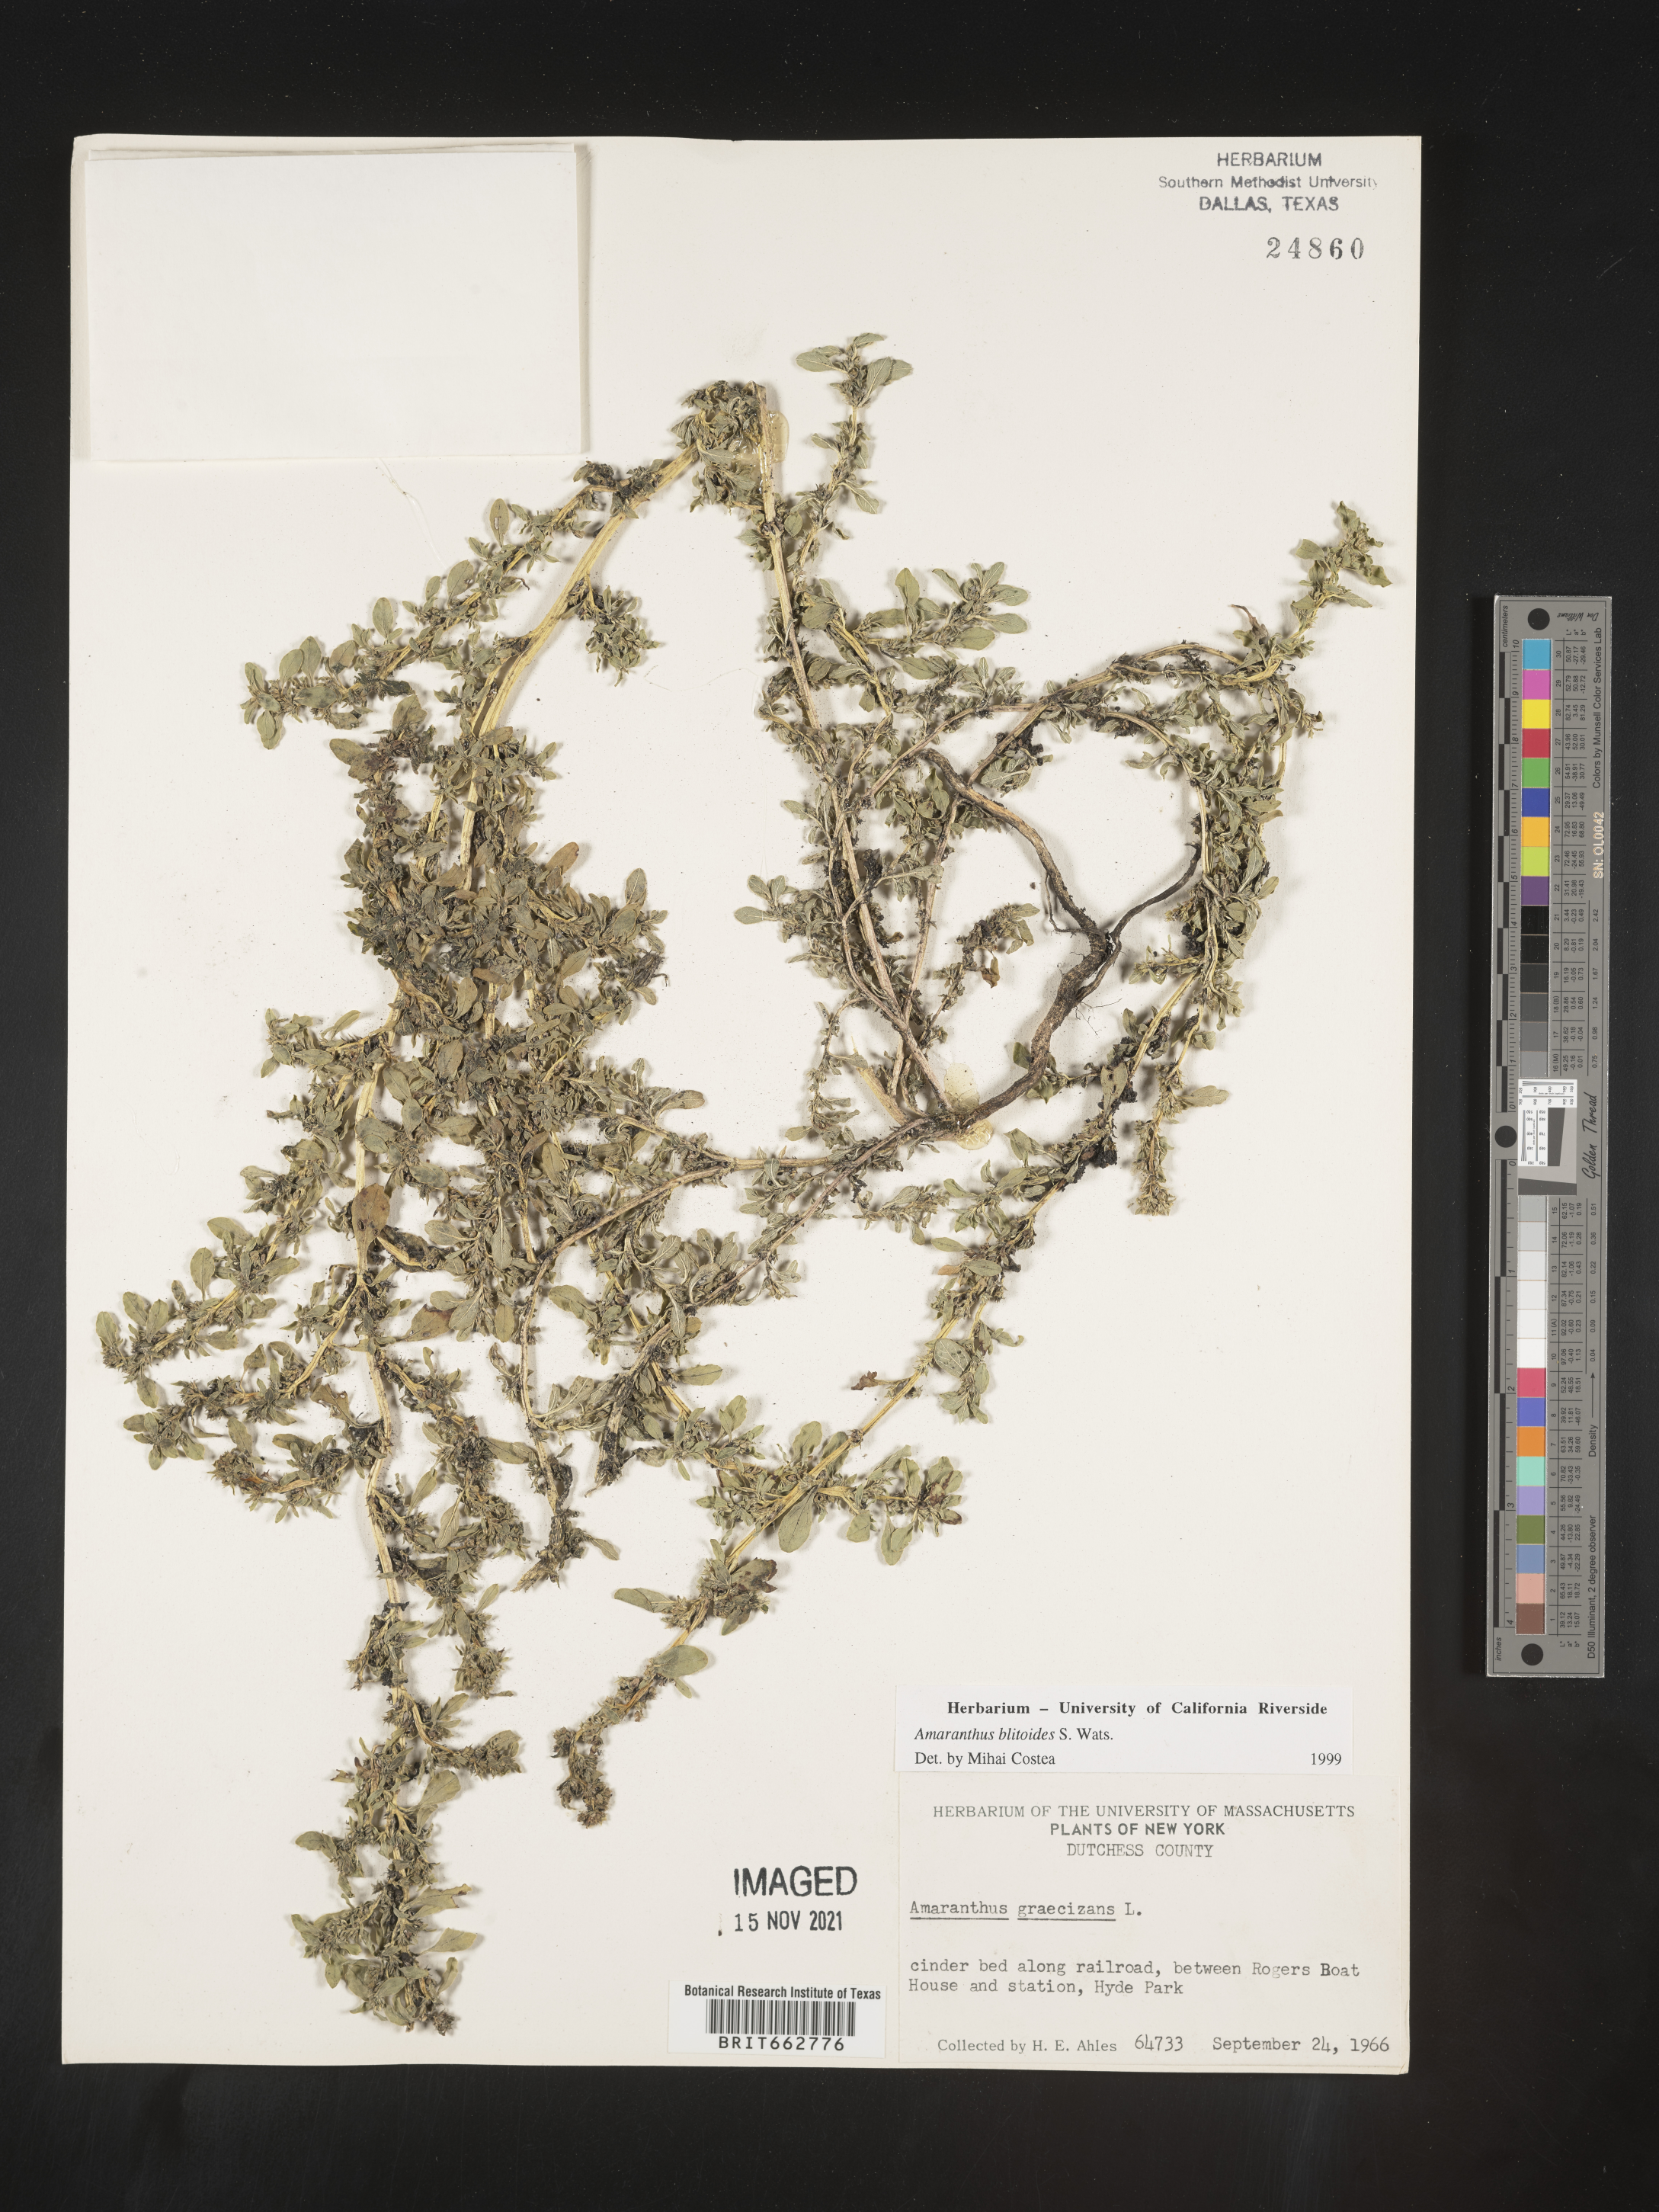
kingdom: Plantae
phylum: Tracheophyta
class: Magnoliopsida
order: Caryophyllales
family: Amaranthaceae
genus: Amaranthus
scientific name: Amaranthus blitoides
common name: Prostrate pigweed
